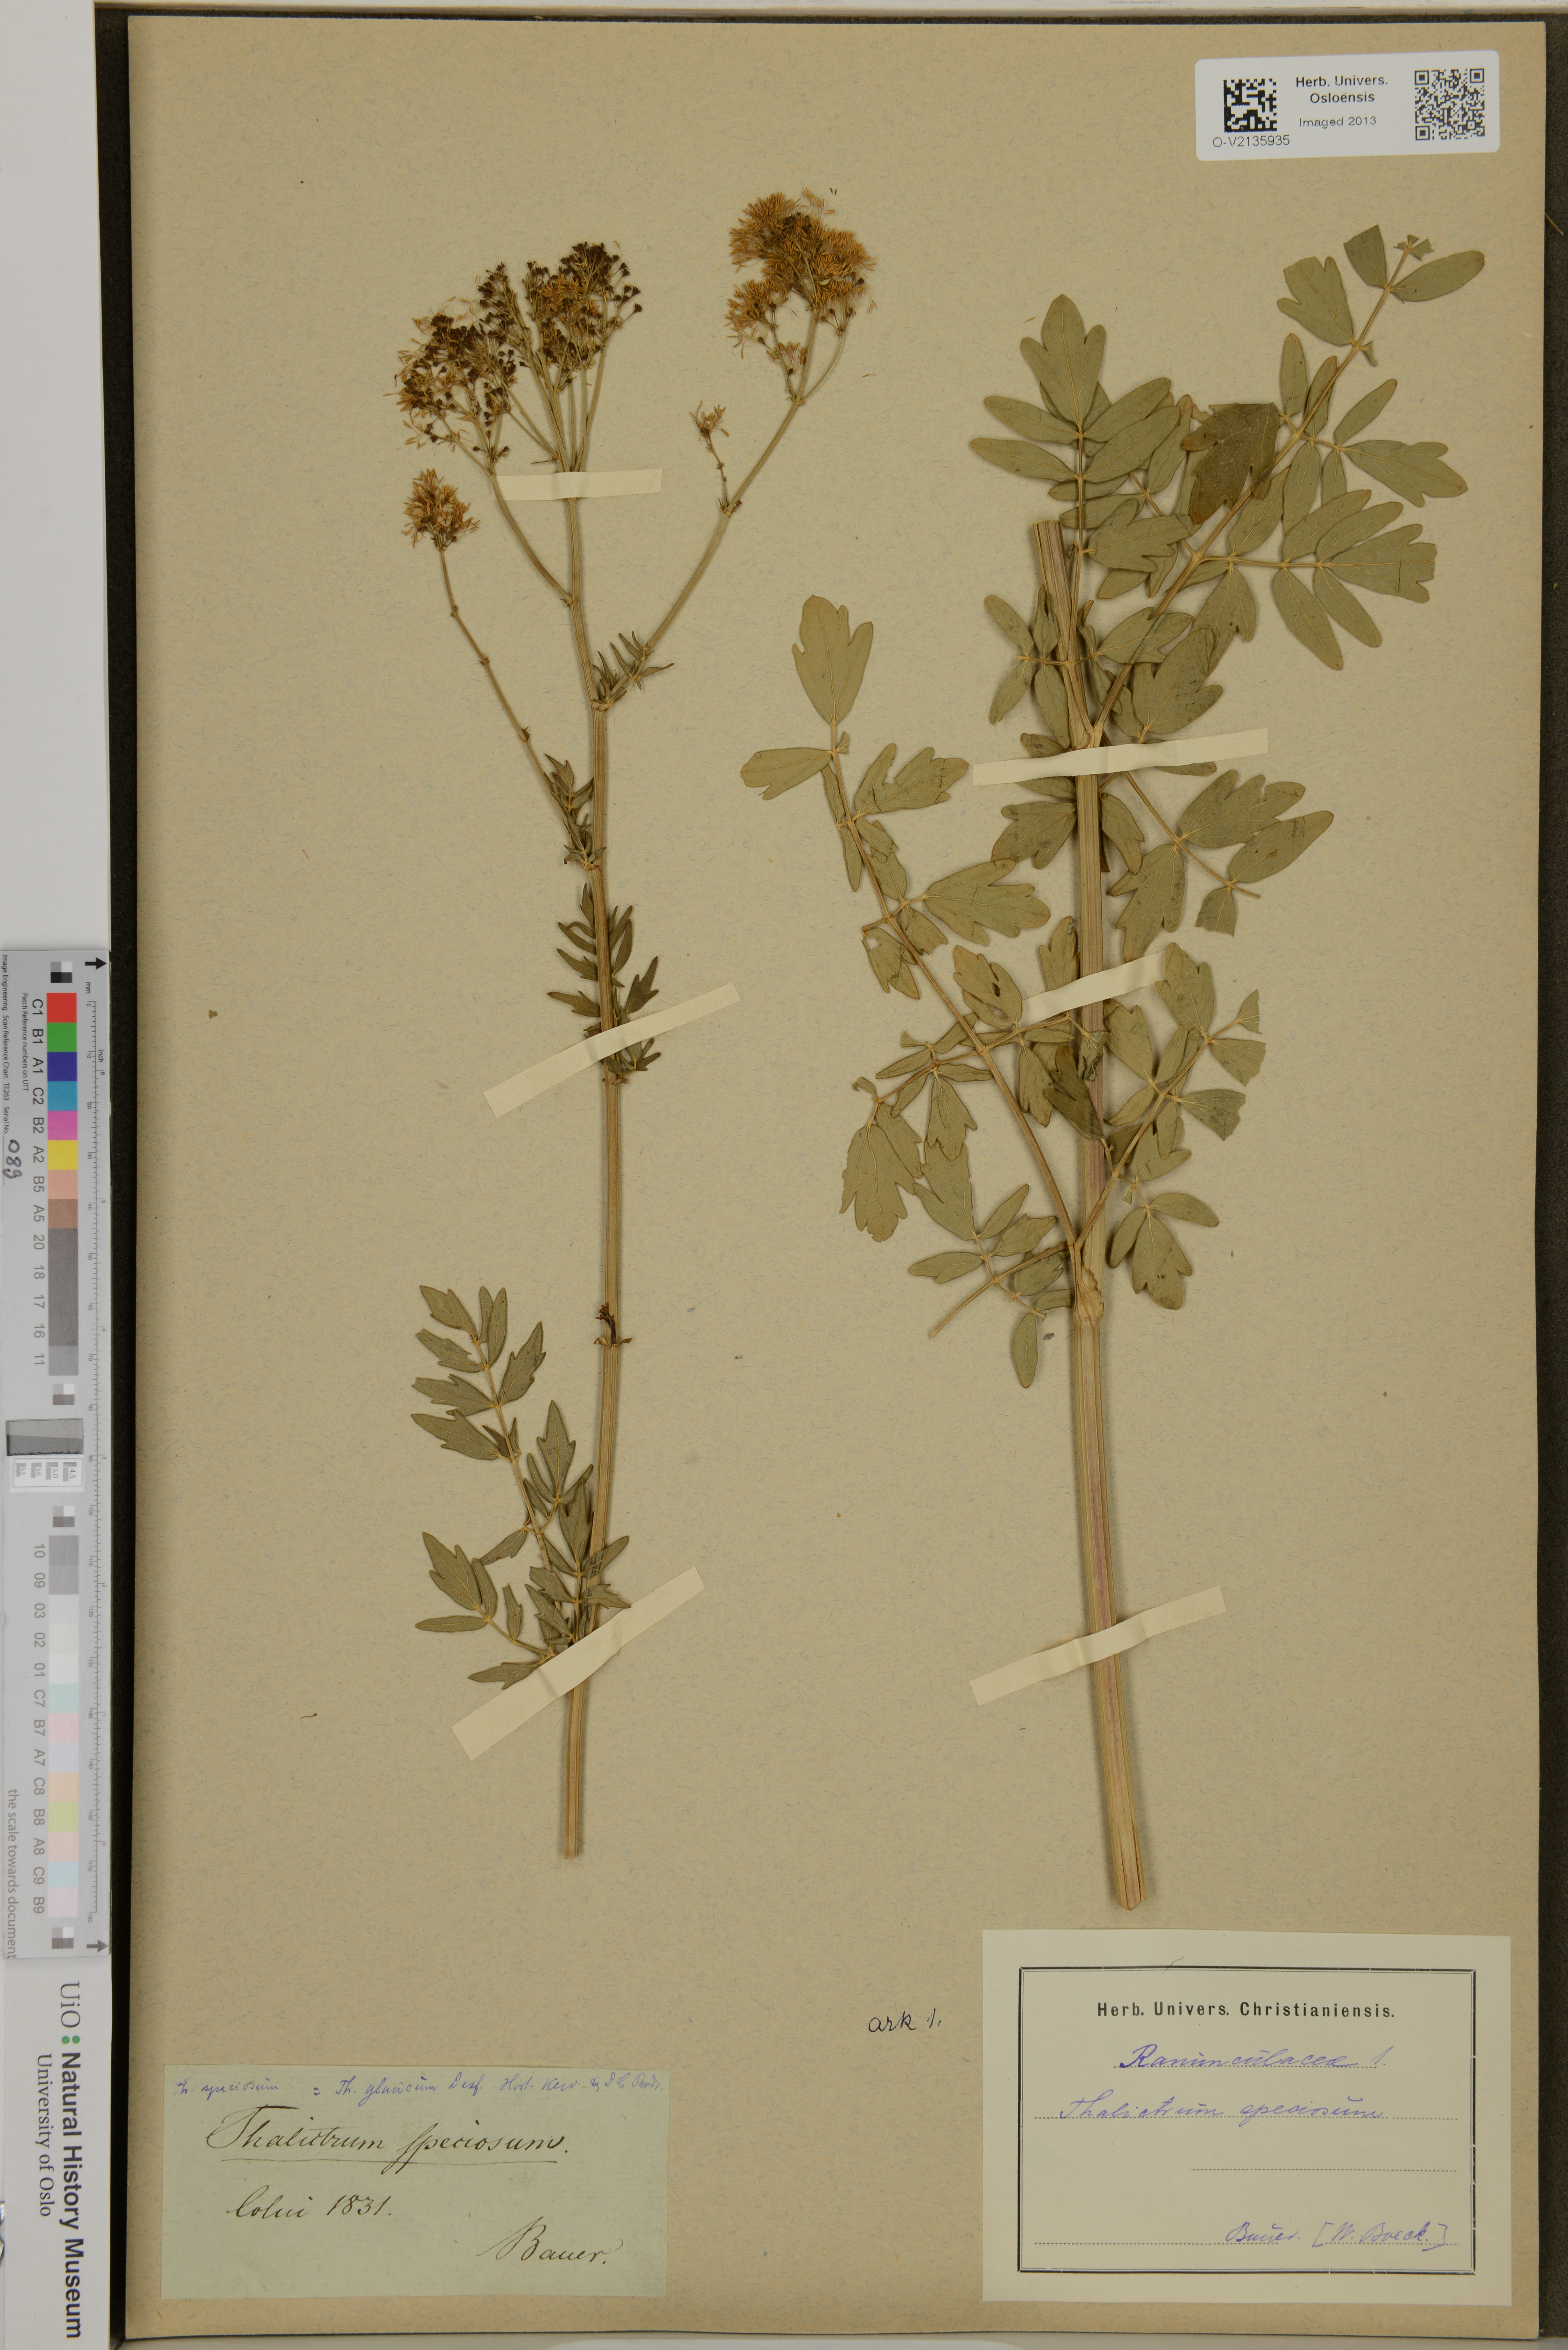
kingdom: Plantae
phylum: Tracheophyta
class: Magnoliopsida
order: Ranunculales
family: Ranunculaceae
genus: Thalictrum
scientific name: Thalictrum
